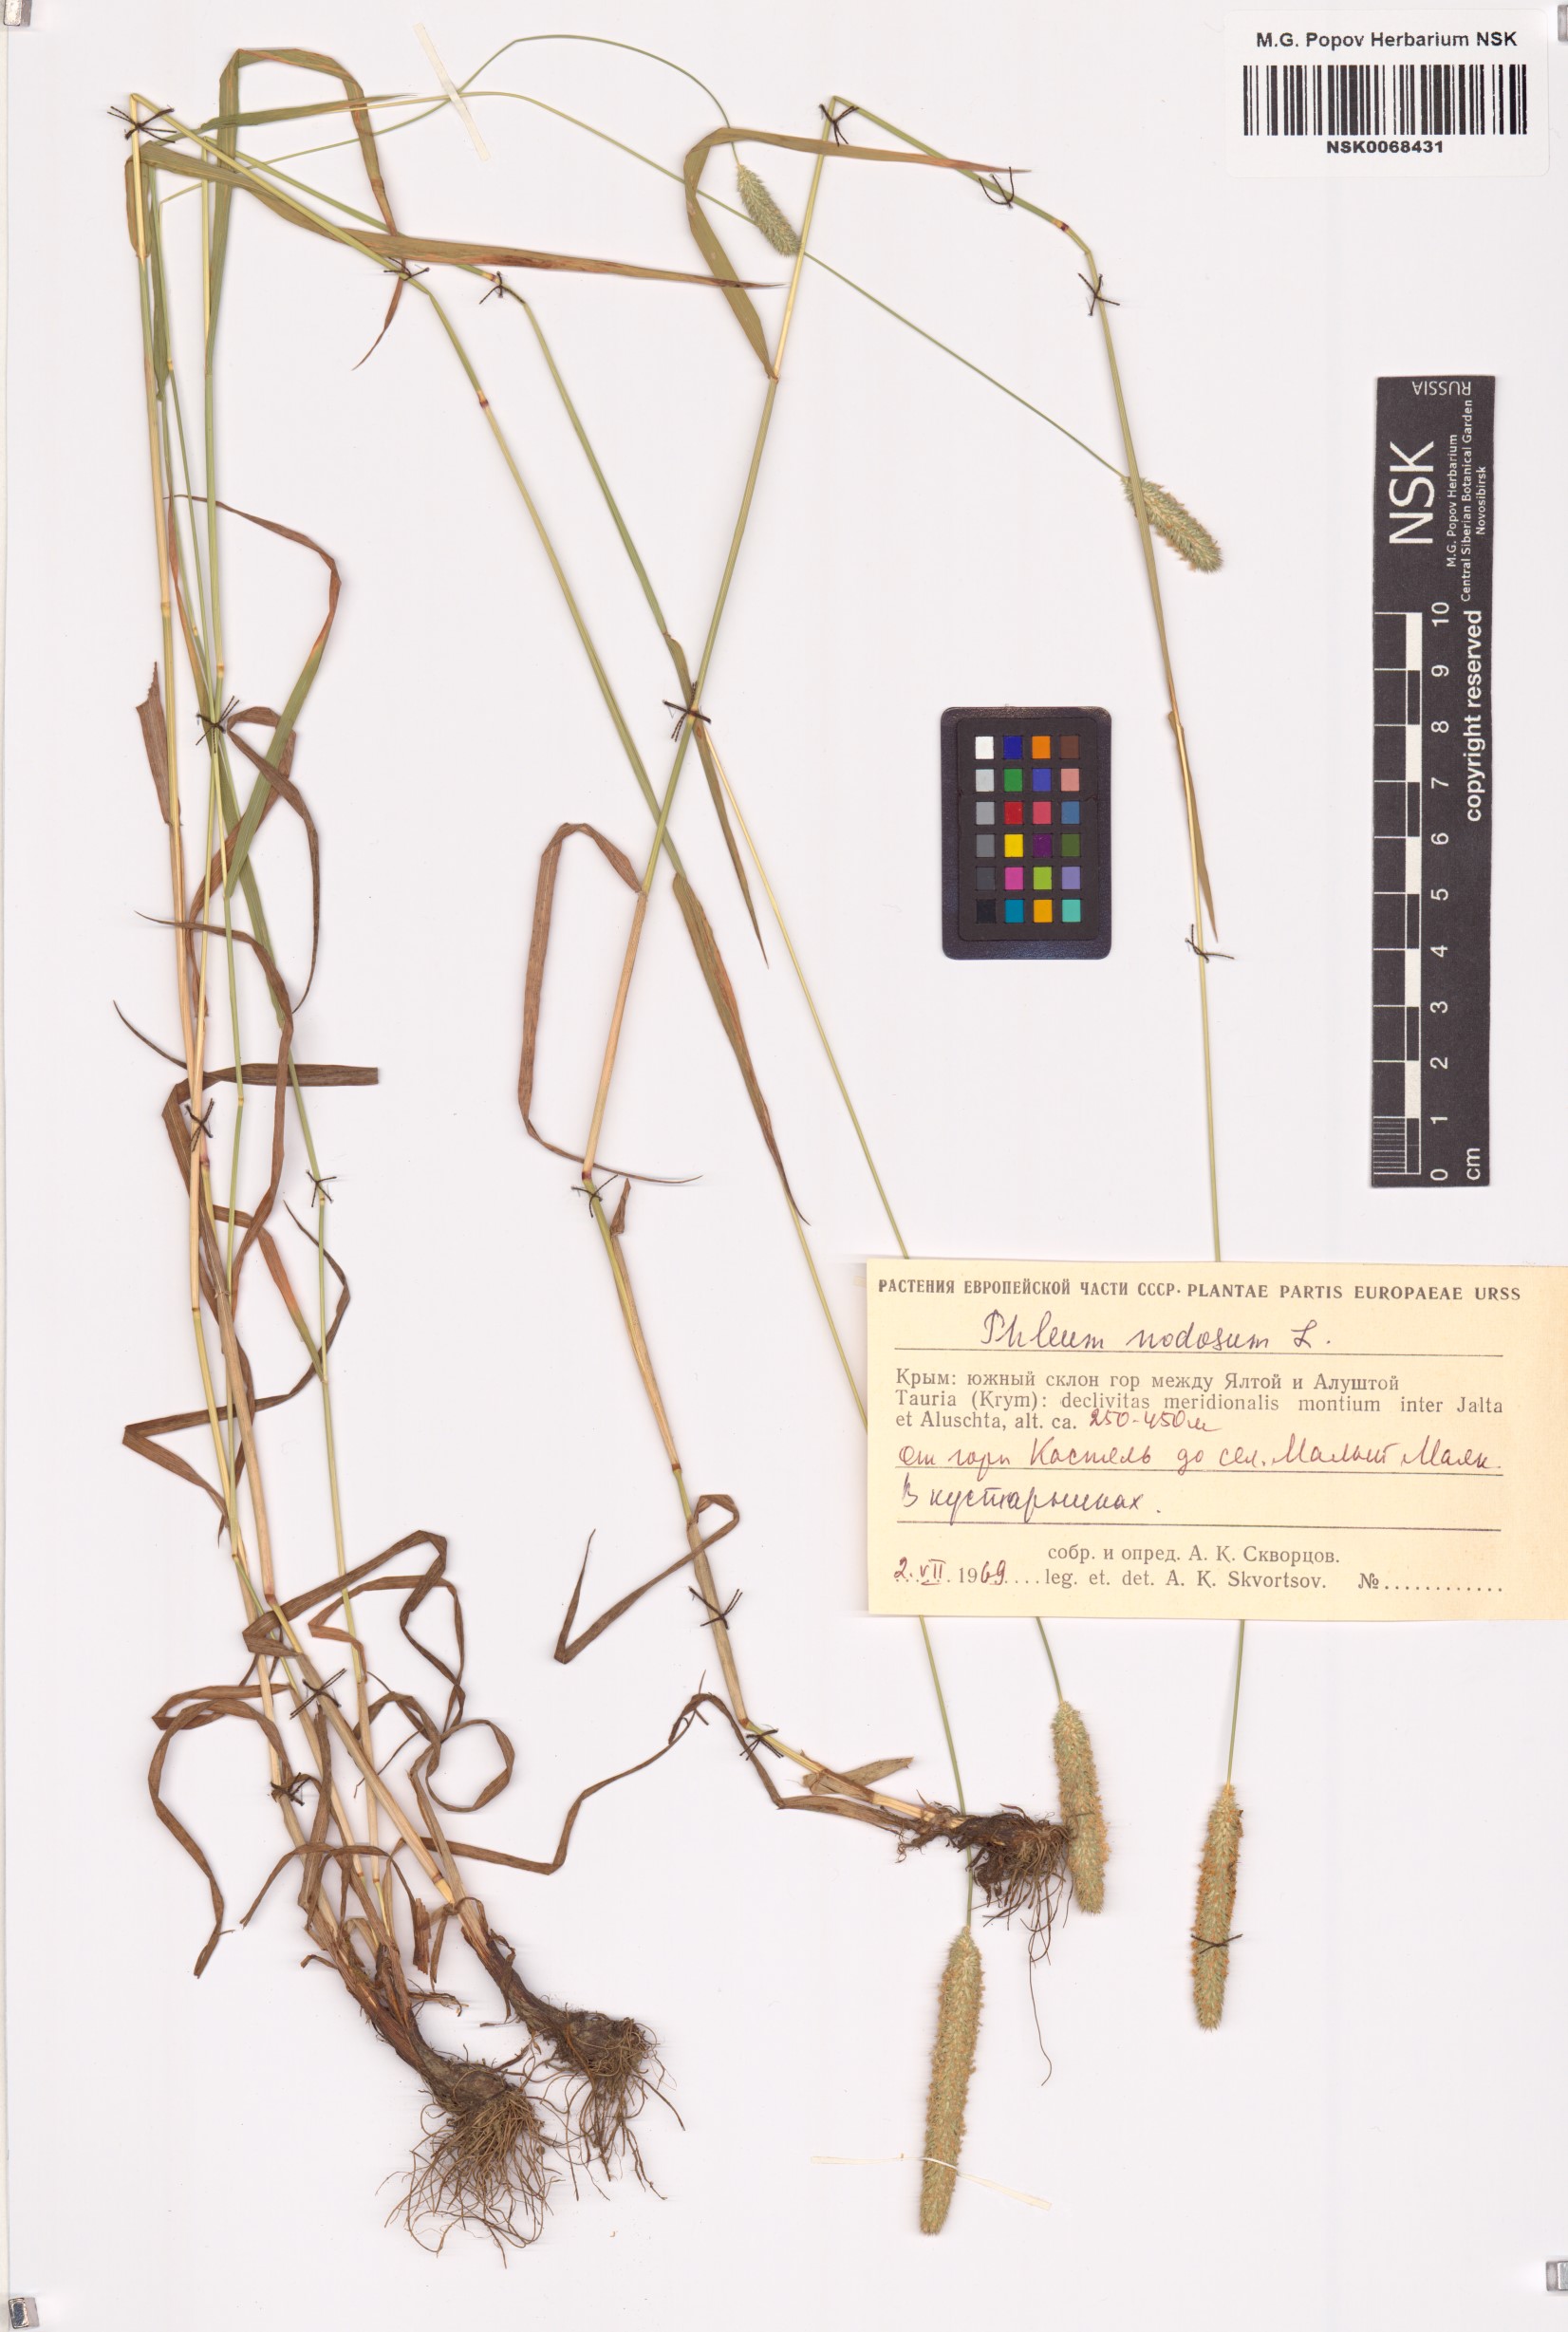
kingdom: Plantae
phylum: Tracheophyta
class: Liliopsida
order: Poales
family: Poaceae
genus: Phleum
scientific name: Phleum pratense
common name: Timothy grass
